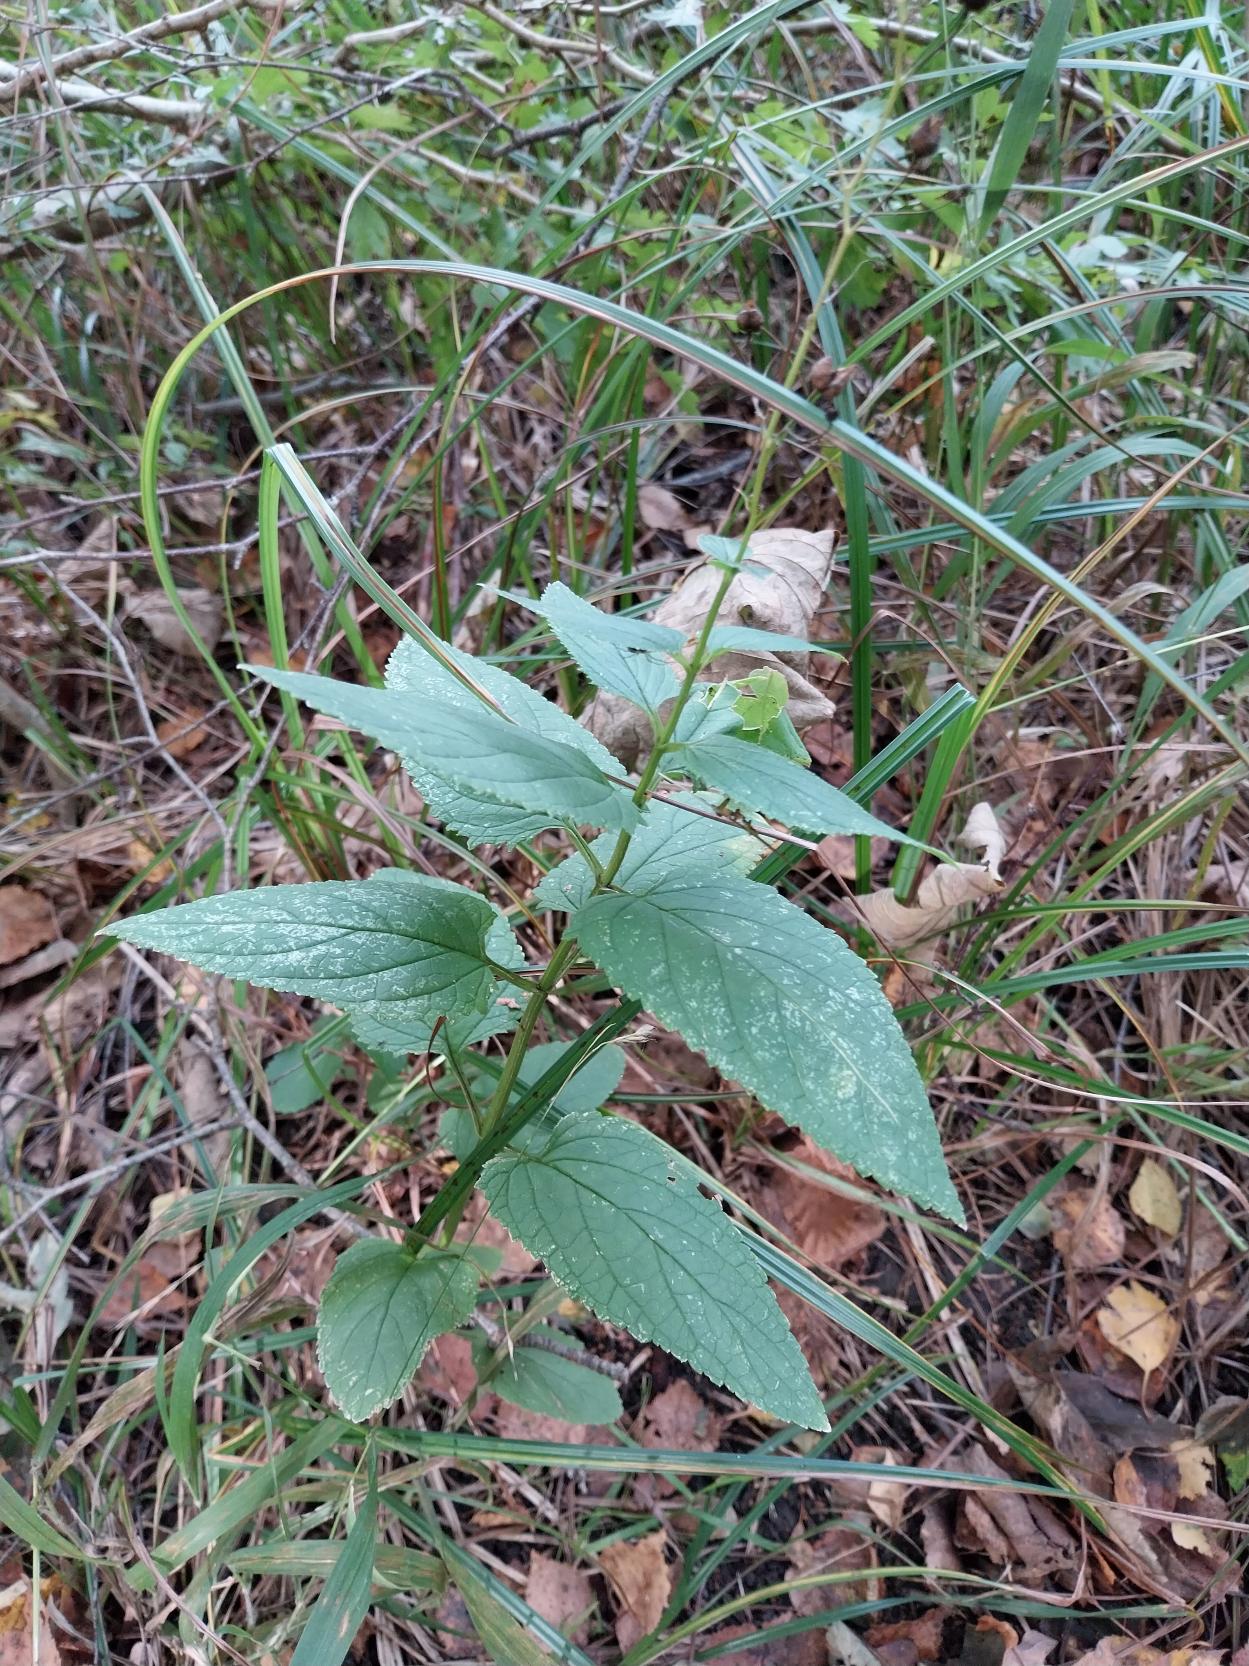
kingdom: Plantae
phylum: Tracheophyta
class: Magnoliopsida
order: Lamiales
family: Scrophulariaceae
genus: Scrophularia
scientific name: Scrophularia nodosa
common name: Knoldet brunrod
